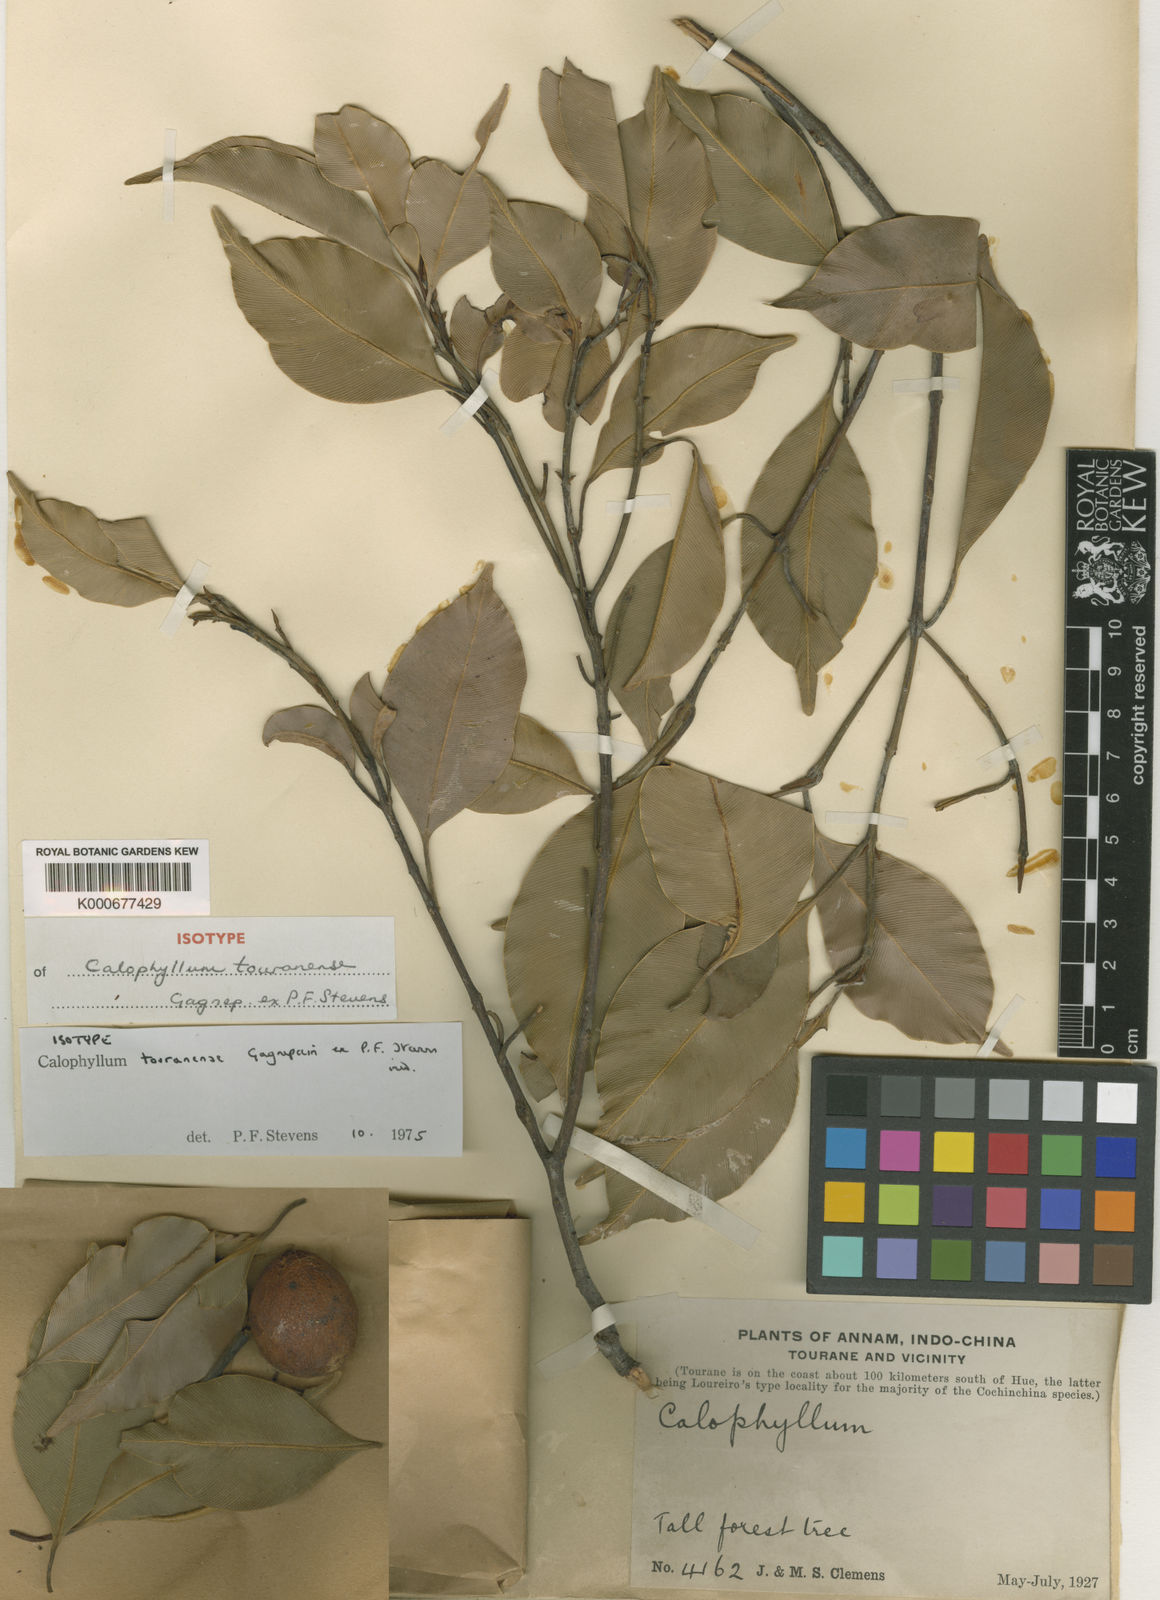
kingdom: Plantae
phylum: Tracheophyta
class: Magnoliopsida
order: Malpighiales
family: Calophyllaceae
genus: Calophyllum
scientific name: Calophyllum touranense
